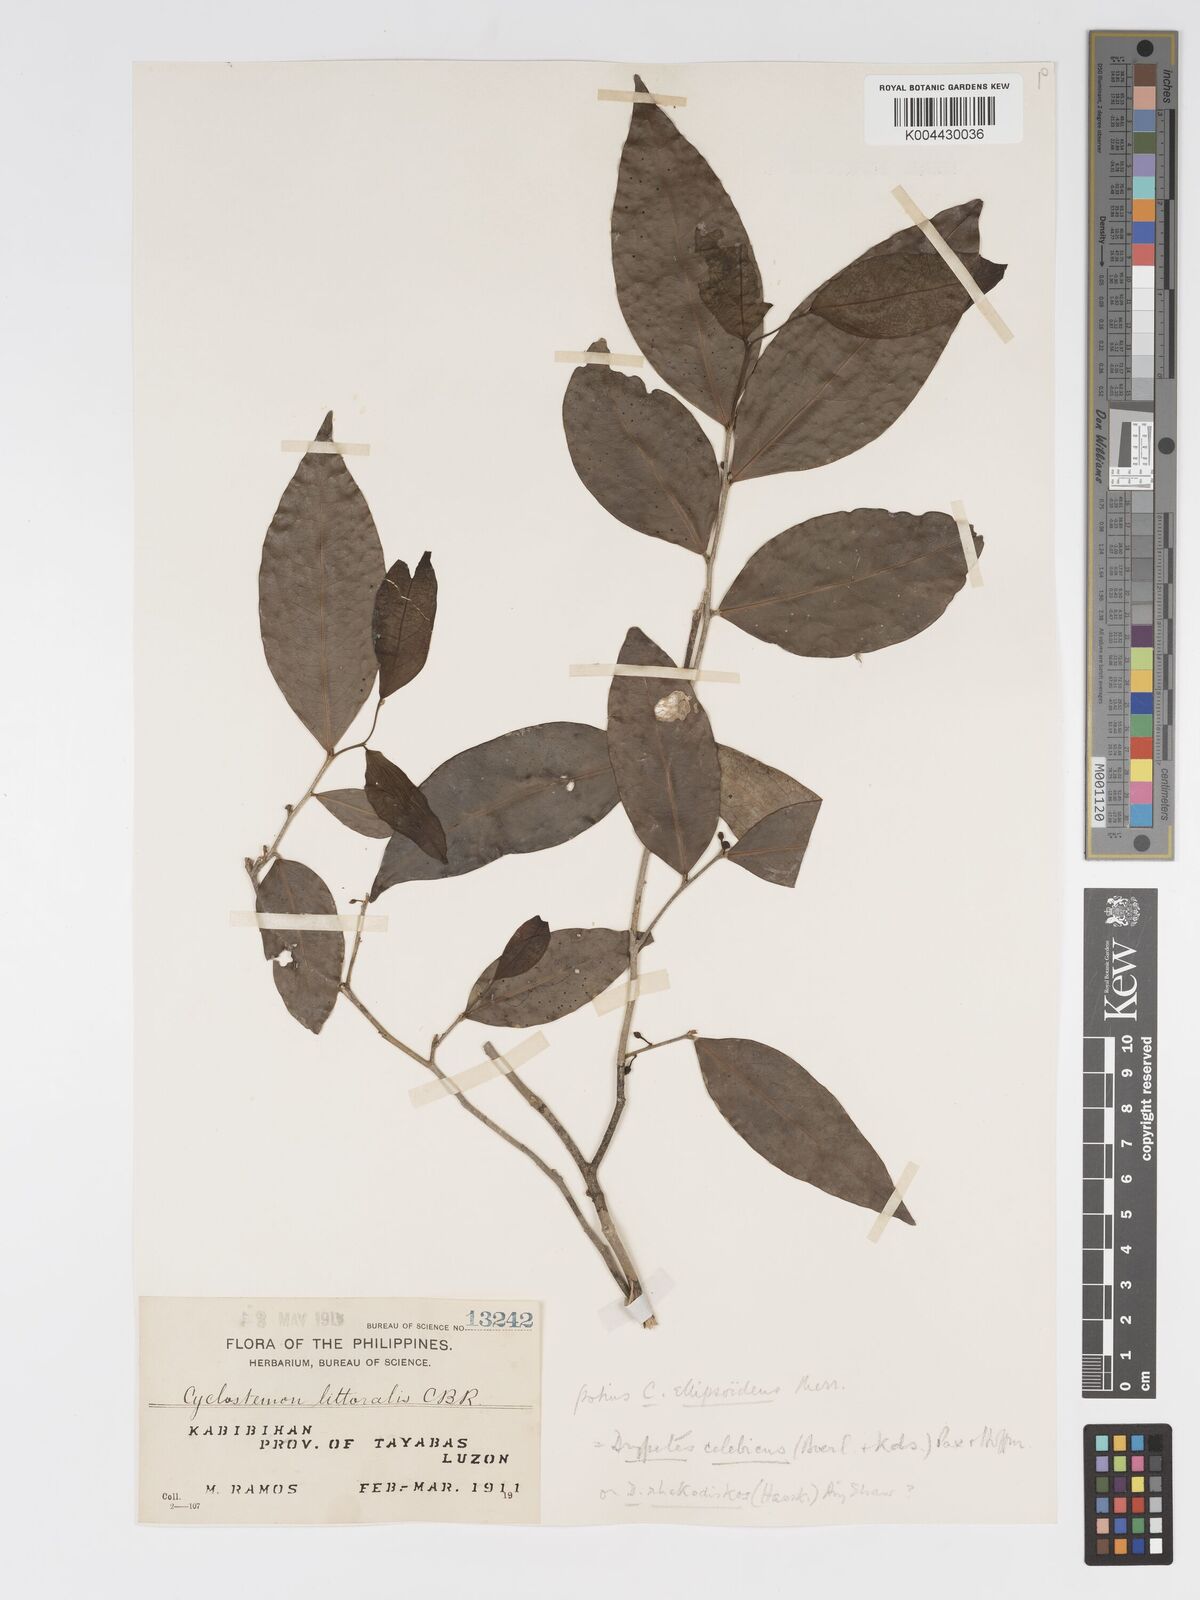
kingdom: Plantae
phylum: Tracheophyta
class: Magnoliopsida
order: Malpighiales
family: Putranjivaceae
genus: Drypetes
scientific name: Drypetes rhakodiskos
